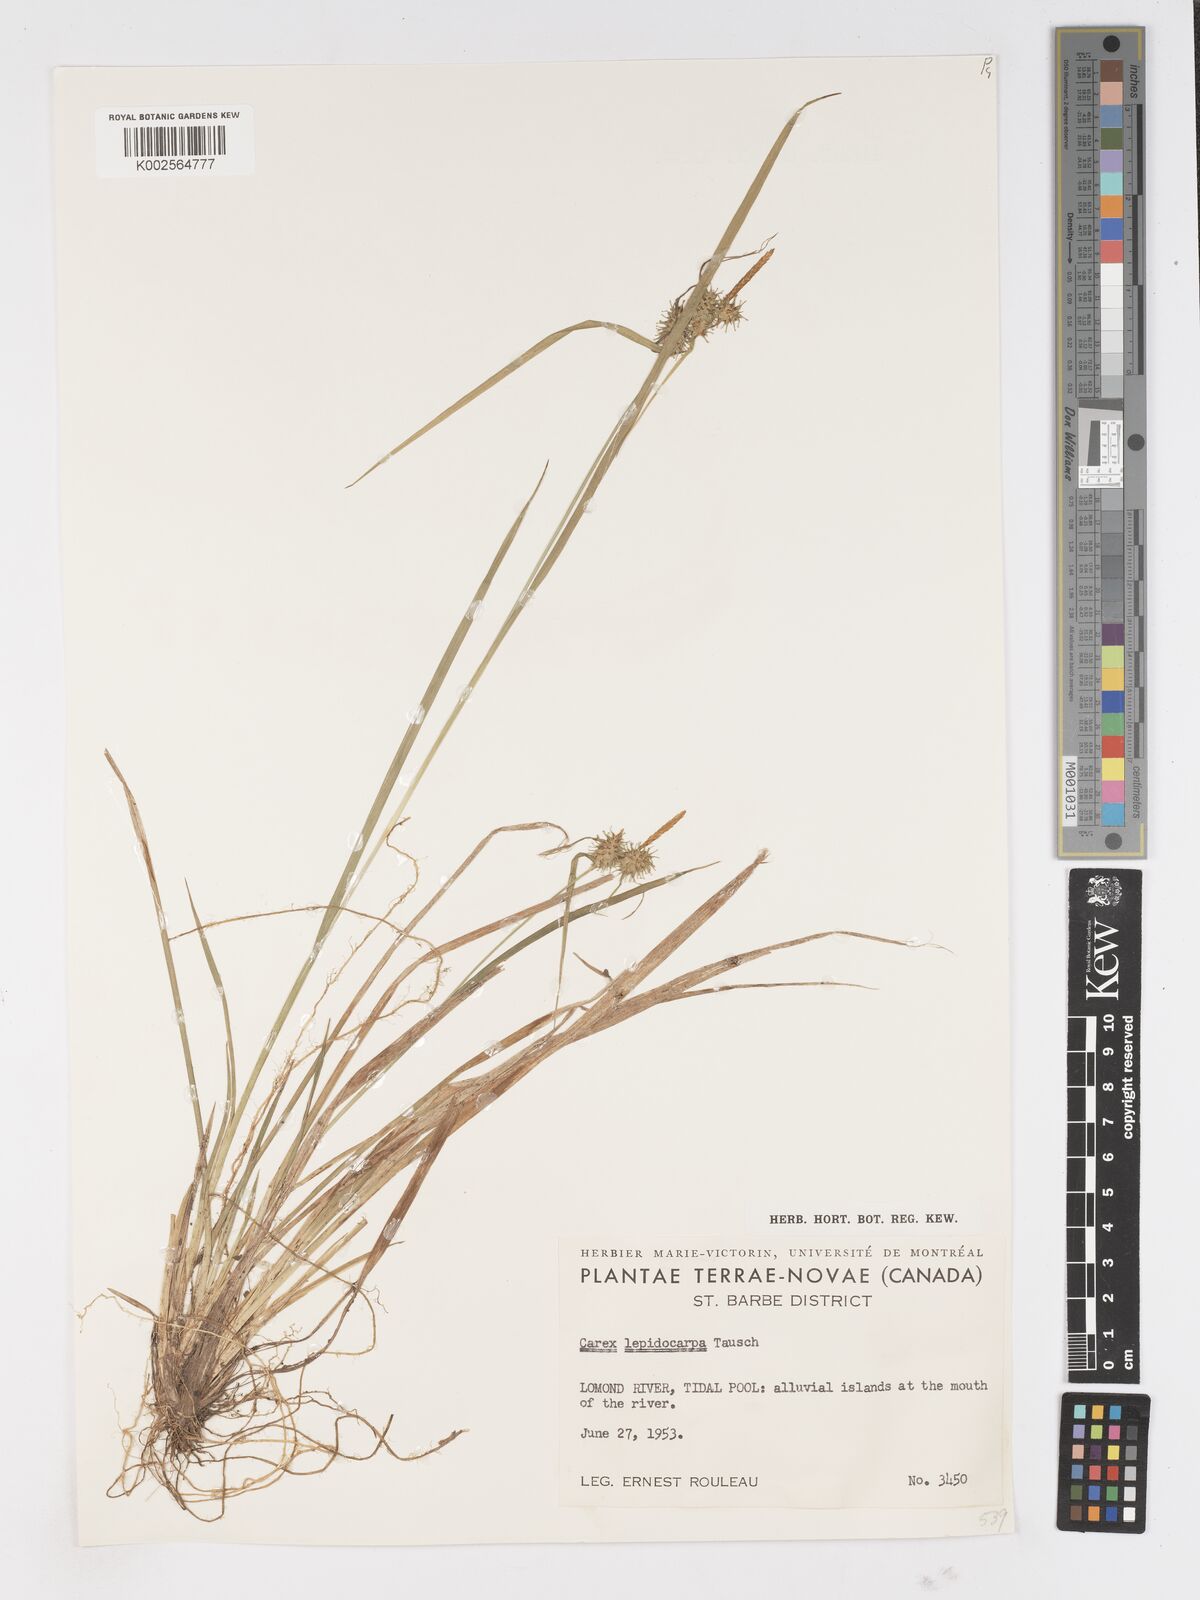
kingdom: Plantae
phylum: Tracheophyta
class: Liliopsida
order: Poales
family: Cyperaceae
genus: Carex
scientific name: Carex
